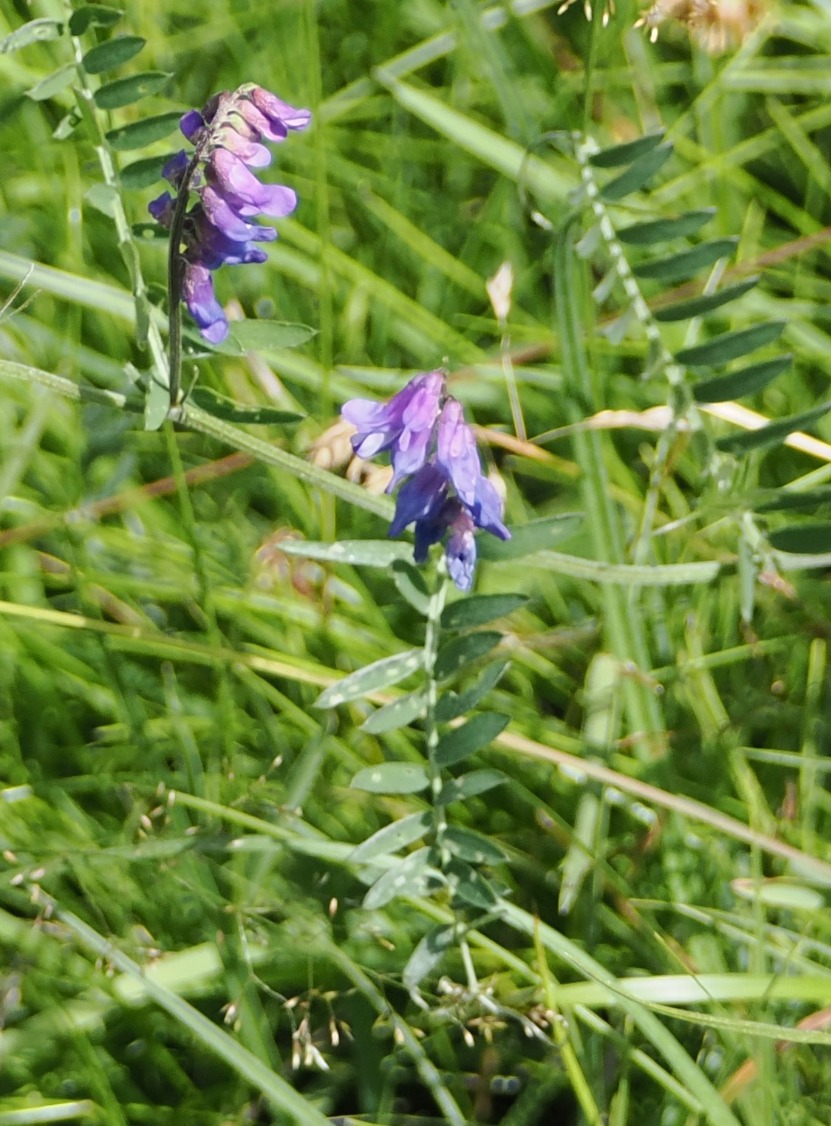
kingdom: Plantae
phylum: Tracheophyta
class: Magnoliopsida
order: Fabales
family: Fabaceae
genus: Vicia
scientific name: Vicia cracca
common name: Muse-vikke
